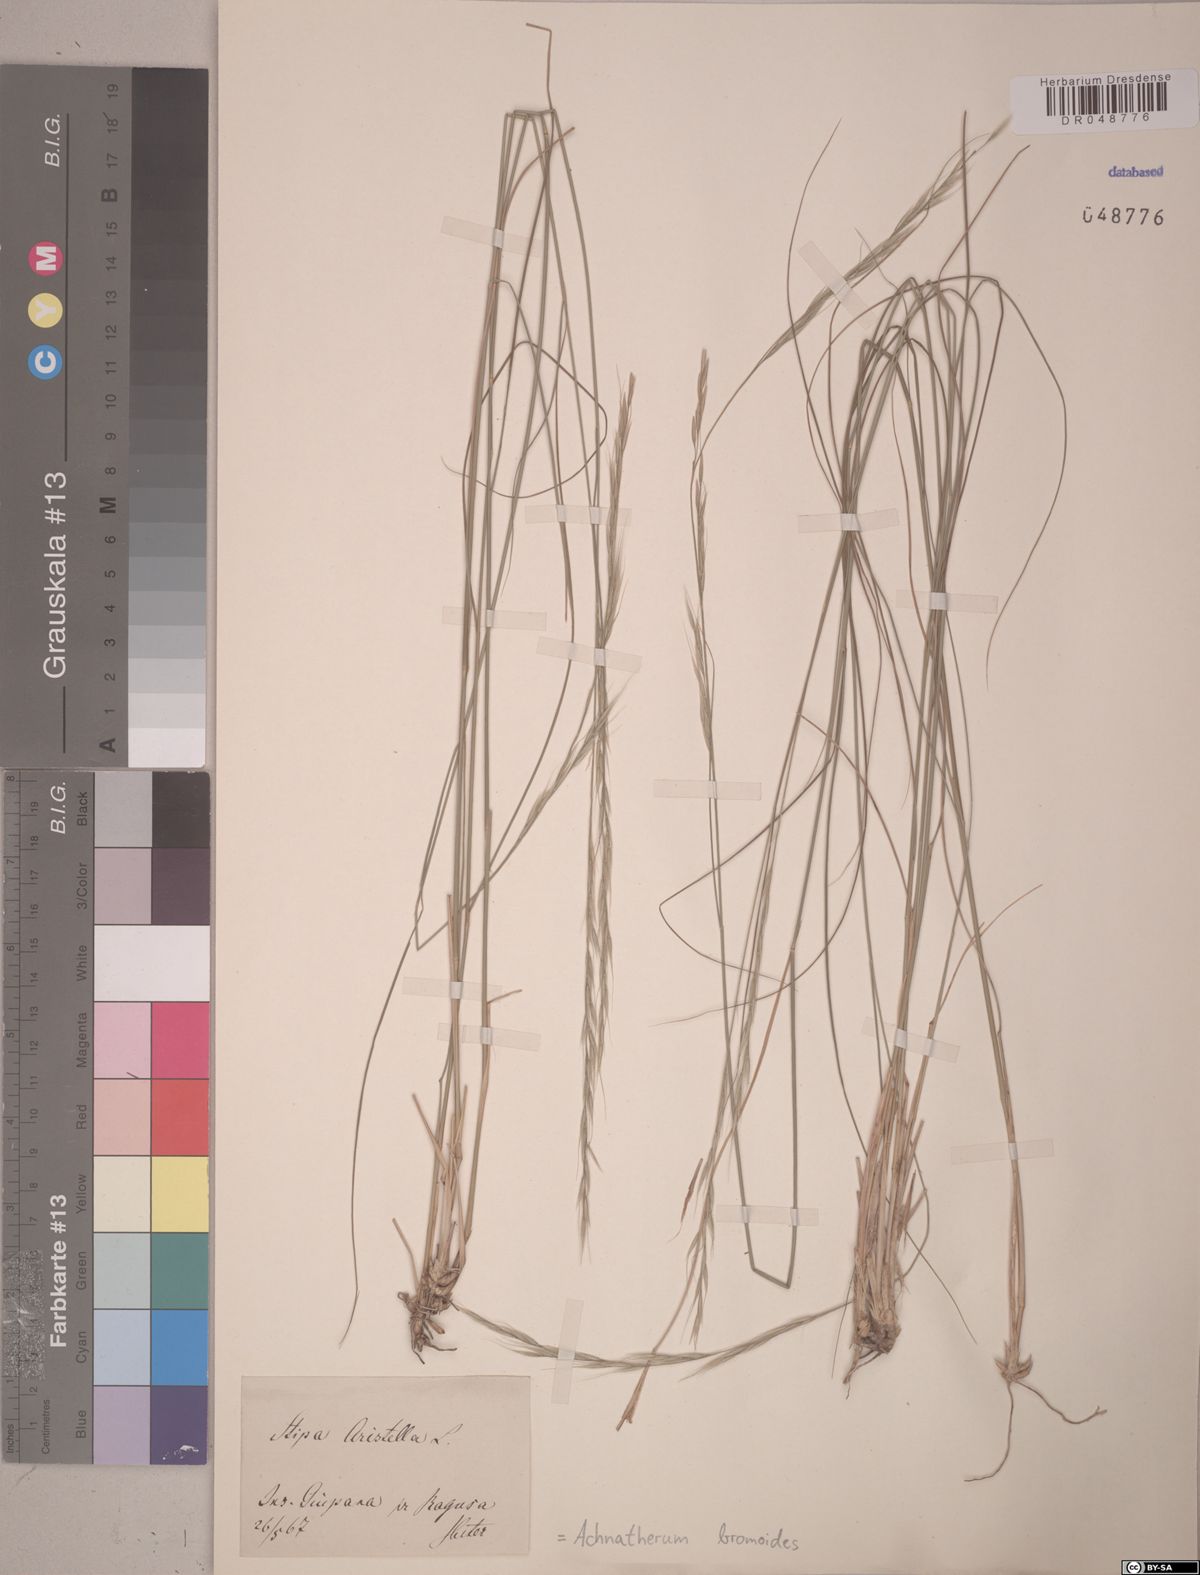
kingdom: Plantae
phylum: Tracheophyta
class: Liliopsida
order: Poales
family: Poaceae
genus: Achnatherum
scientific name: Achnatherum bromoides
